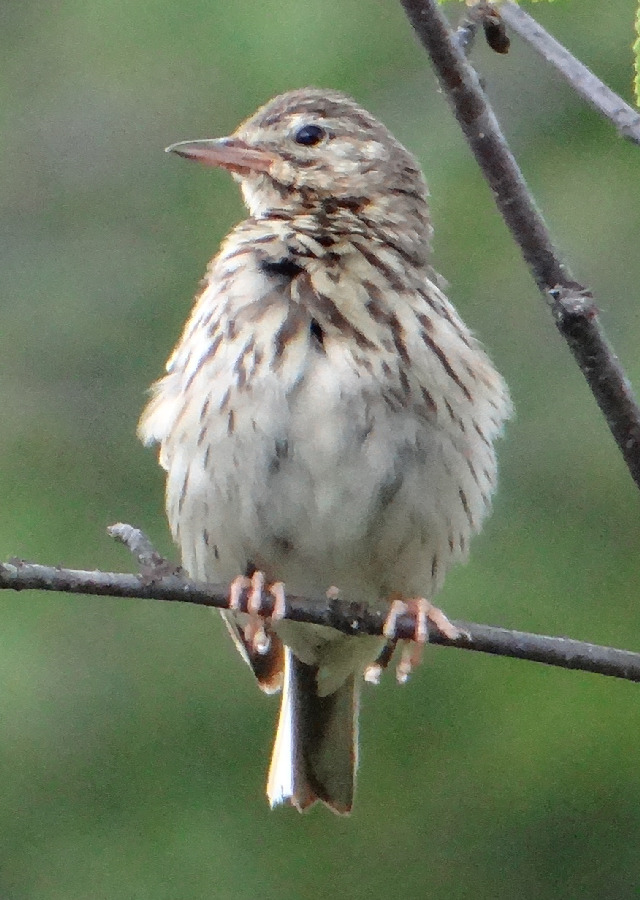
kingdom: Animalia
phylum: Chordata
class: Aves
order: Passeriformes
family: Motacillidae
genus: Anthus
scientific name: Anthus pratensis
